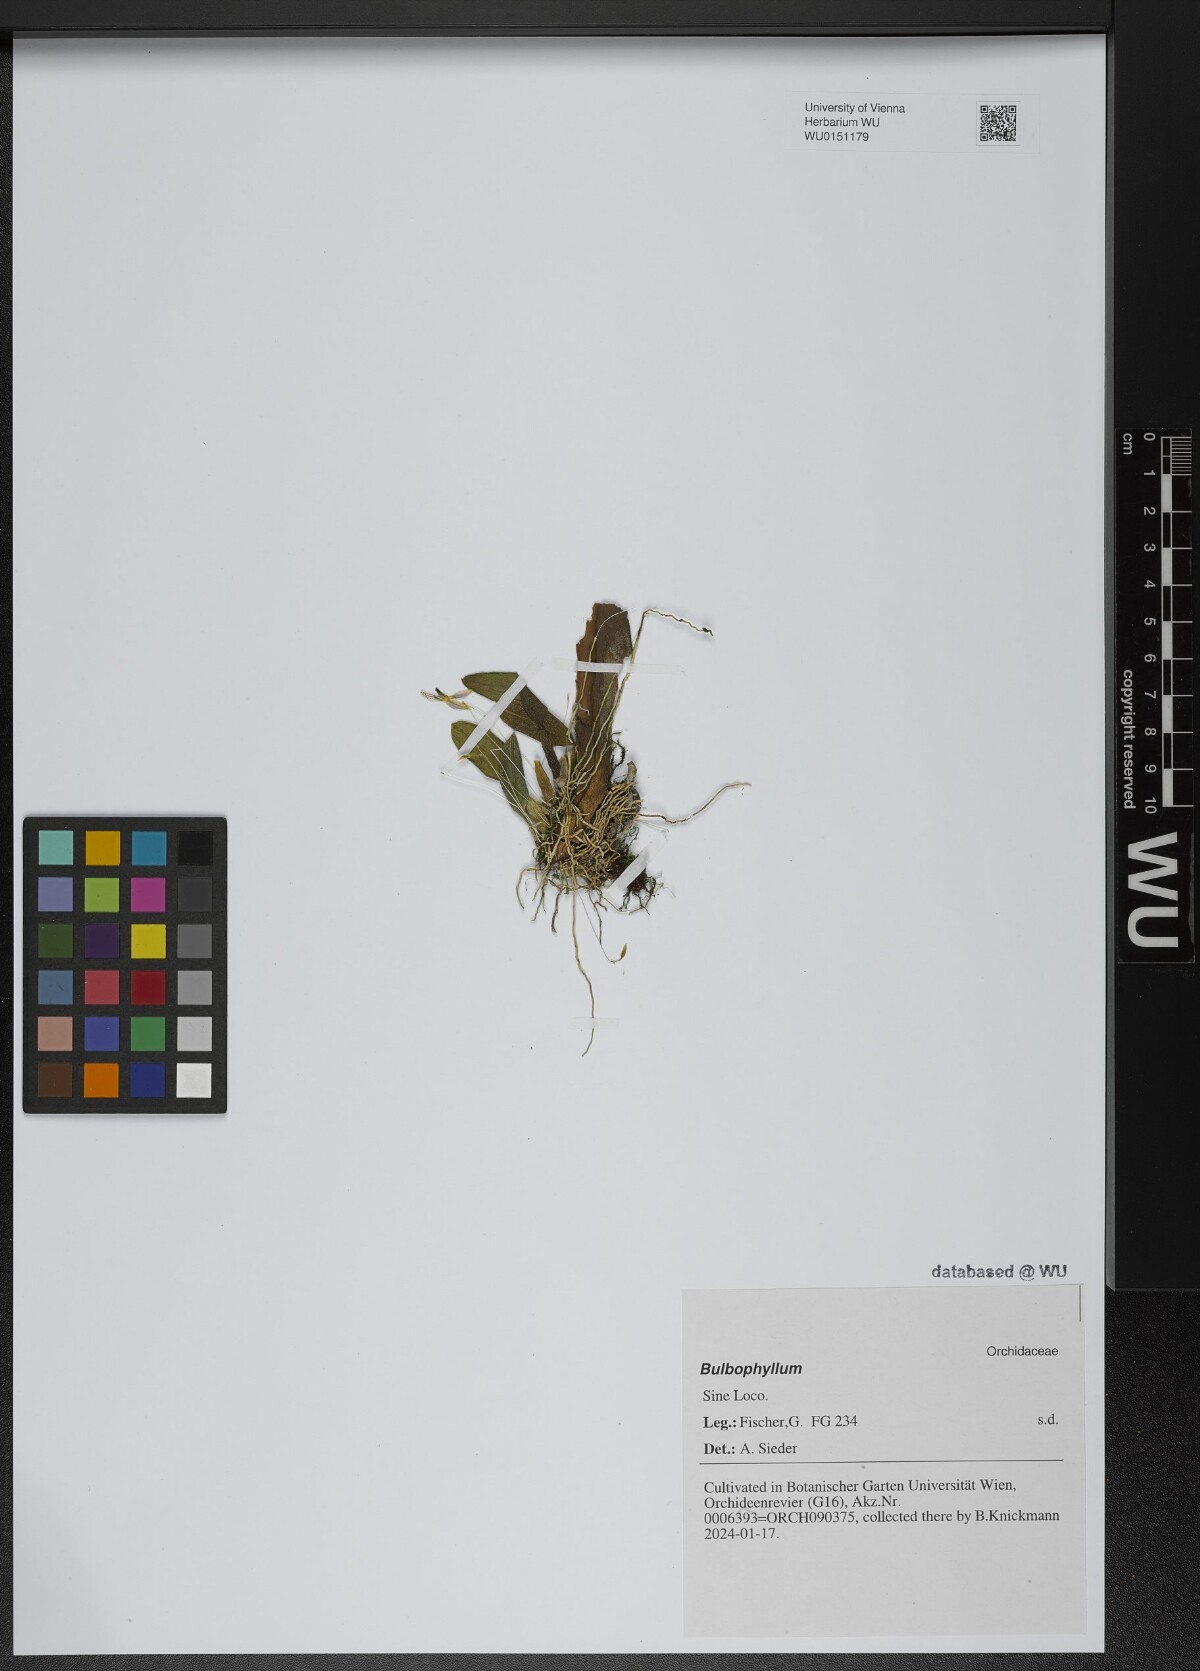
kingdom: Plantae
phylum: Tracheophyta
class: Liliopsida
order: Asparagales
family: Orchidaceae
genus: Bulbophyllum
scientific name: Bulbophyllum
